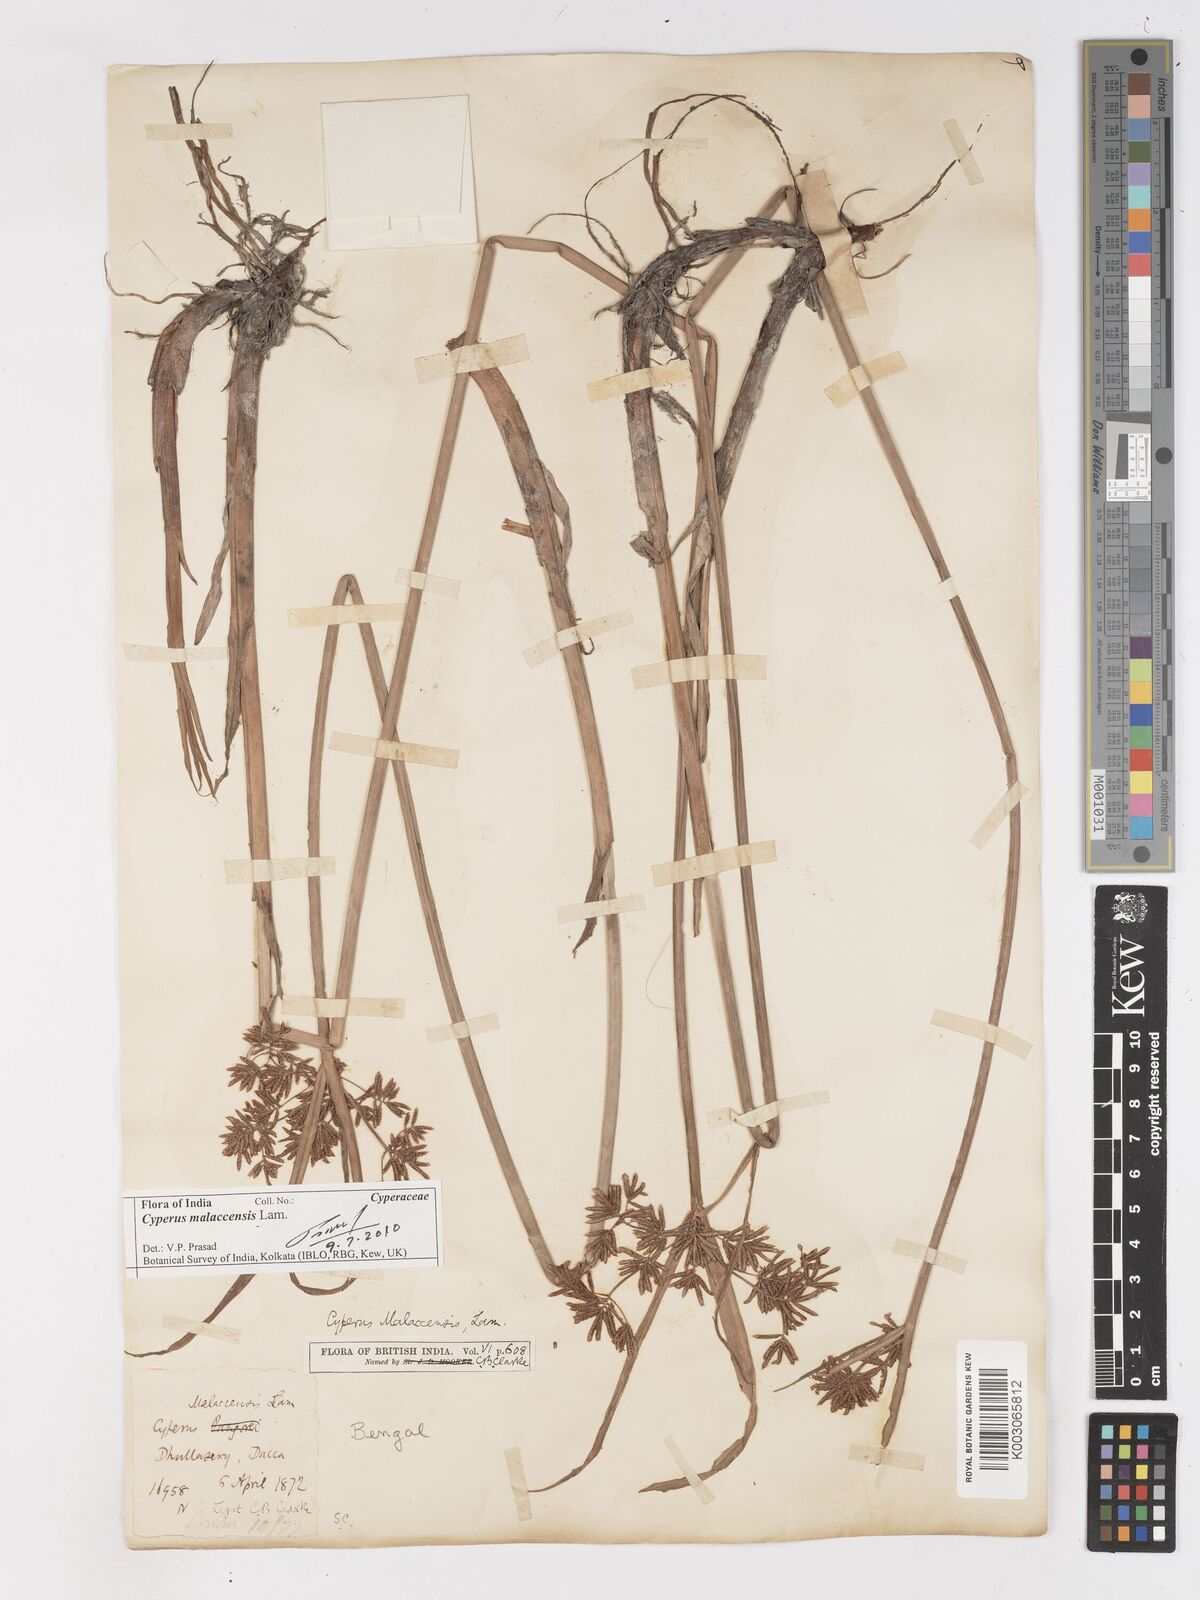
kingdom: Plantae
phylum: Tracheophyta
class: Liliopsida
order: Poales
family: Cyperaceae
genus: Cyperus
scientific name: Cyperus malaccensis
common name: Shichito matgrass
